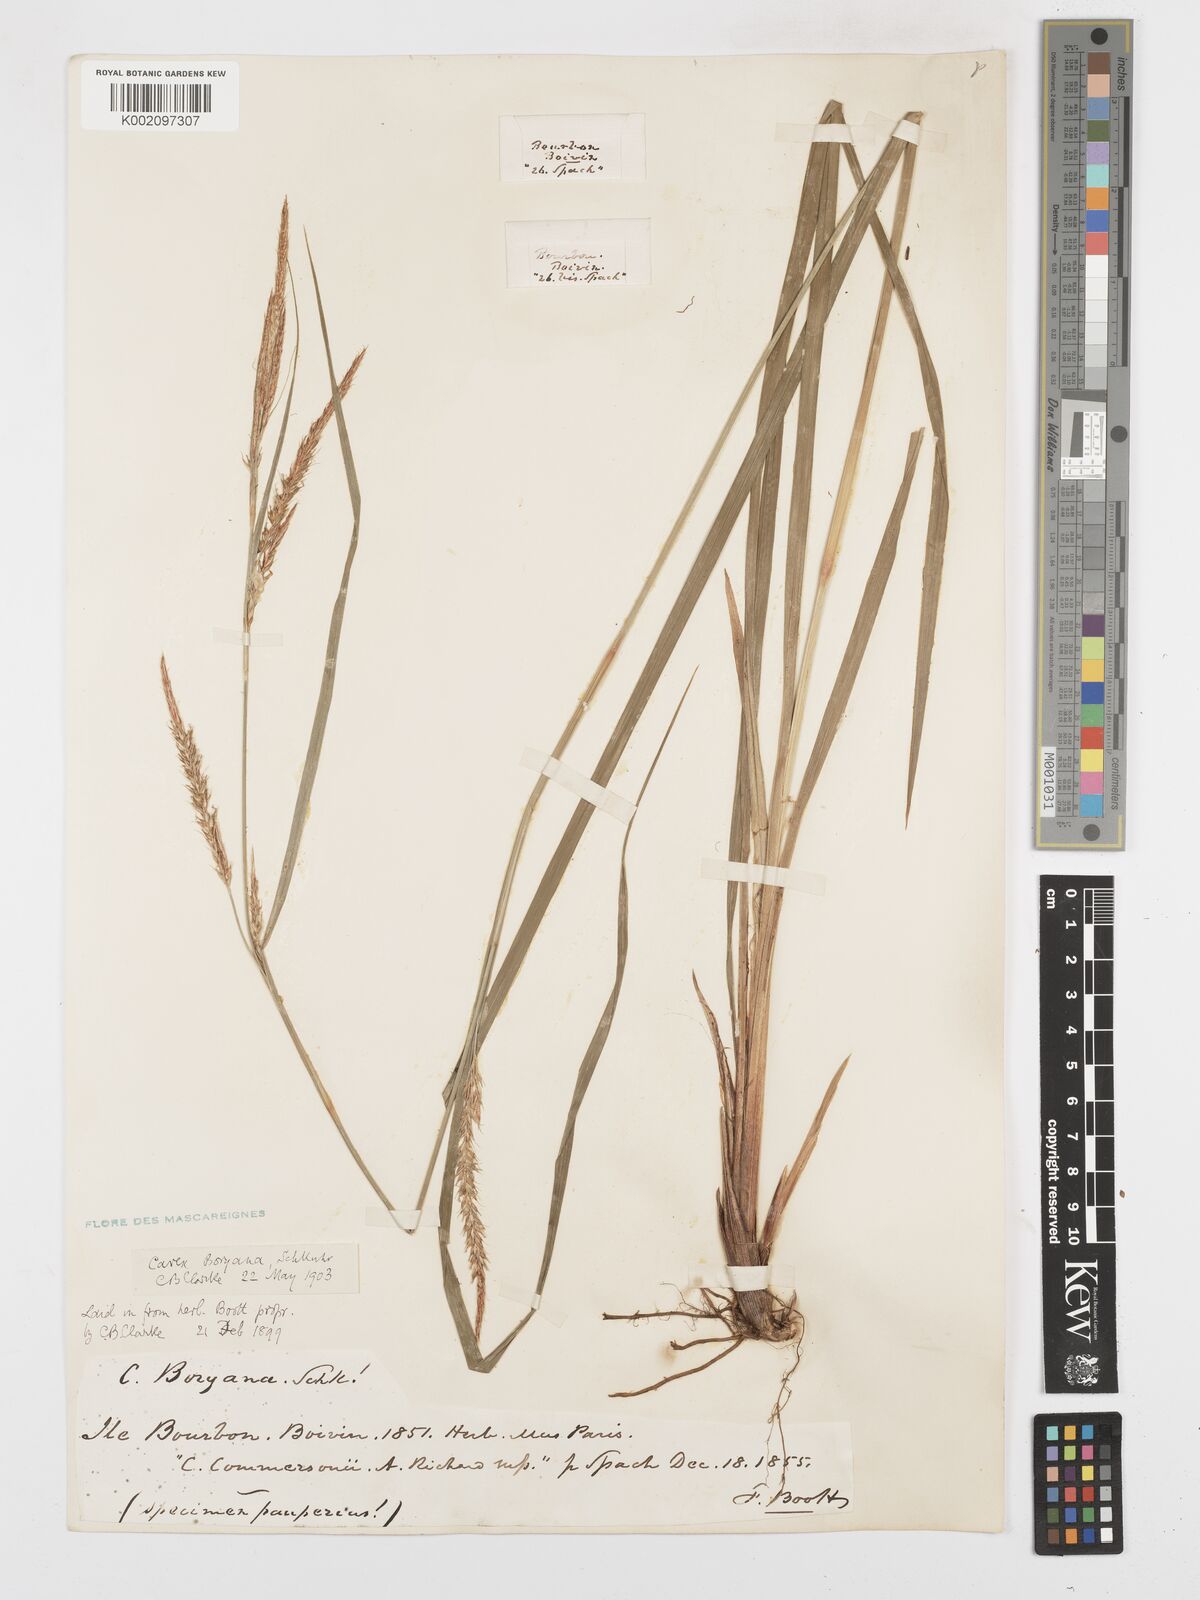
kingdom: Plantae
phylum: Tracheophyta
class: Liliopsida
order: Poales
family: Cyperaceae
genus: Carex
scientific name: Carex boryana
